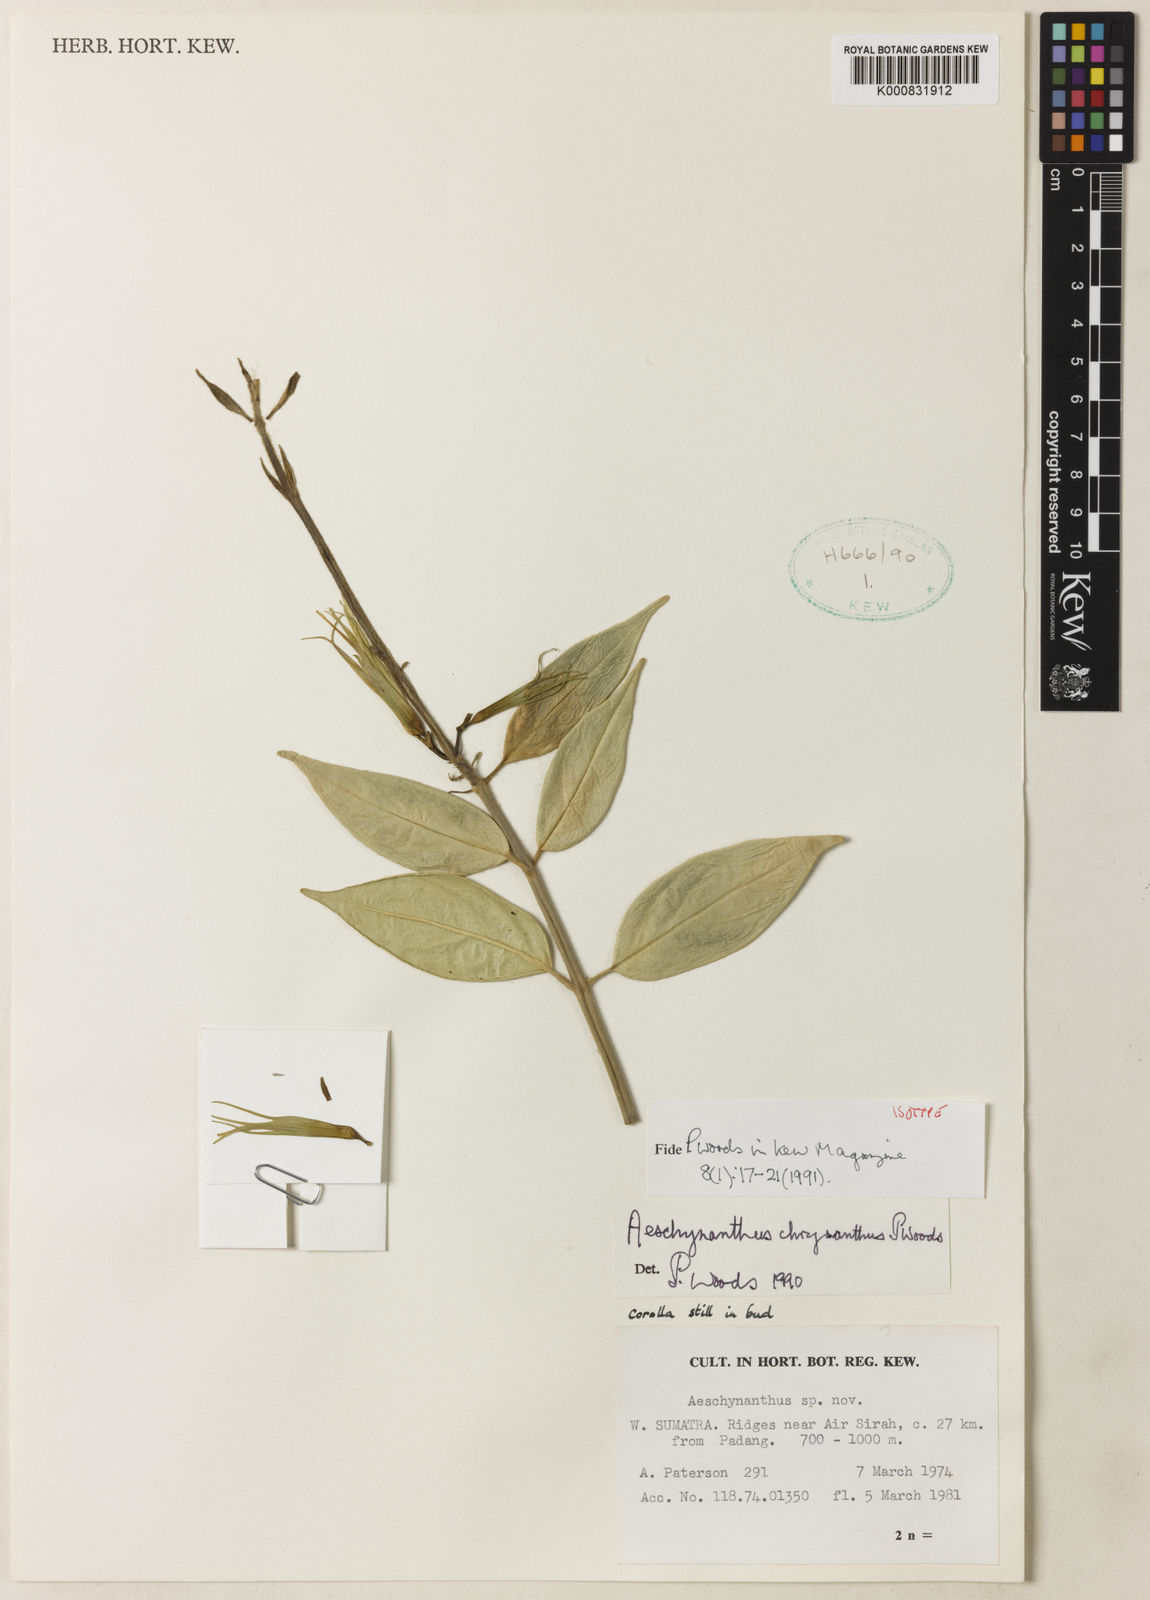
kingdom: Plantae
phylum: Tracheophyta
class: Magnoliopsida
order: Lamiales
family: Gesneriaceae
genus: Aeschynanthus
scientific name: Aeschynanthus chrysanthus
